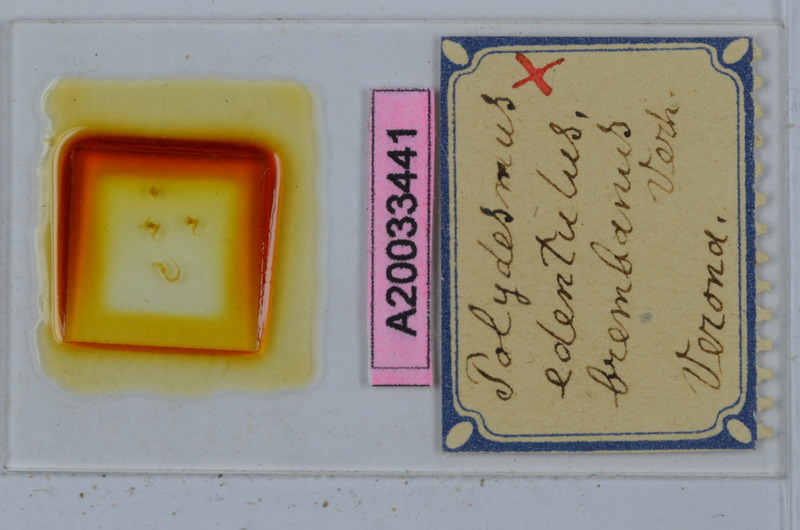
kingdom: Animalia
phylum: Arthropoda
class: Diplopoda
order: Polydesmida
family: Polydesmidae
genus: Polydesmus
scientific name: Polydesmus edentulus
